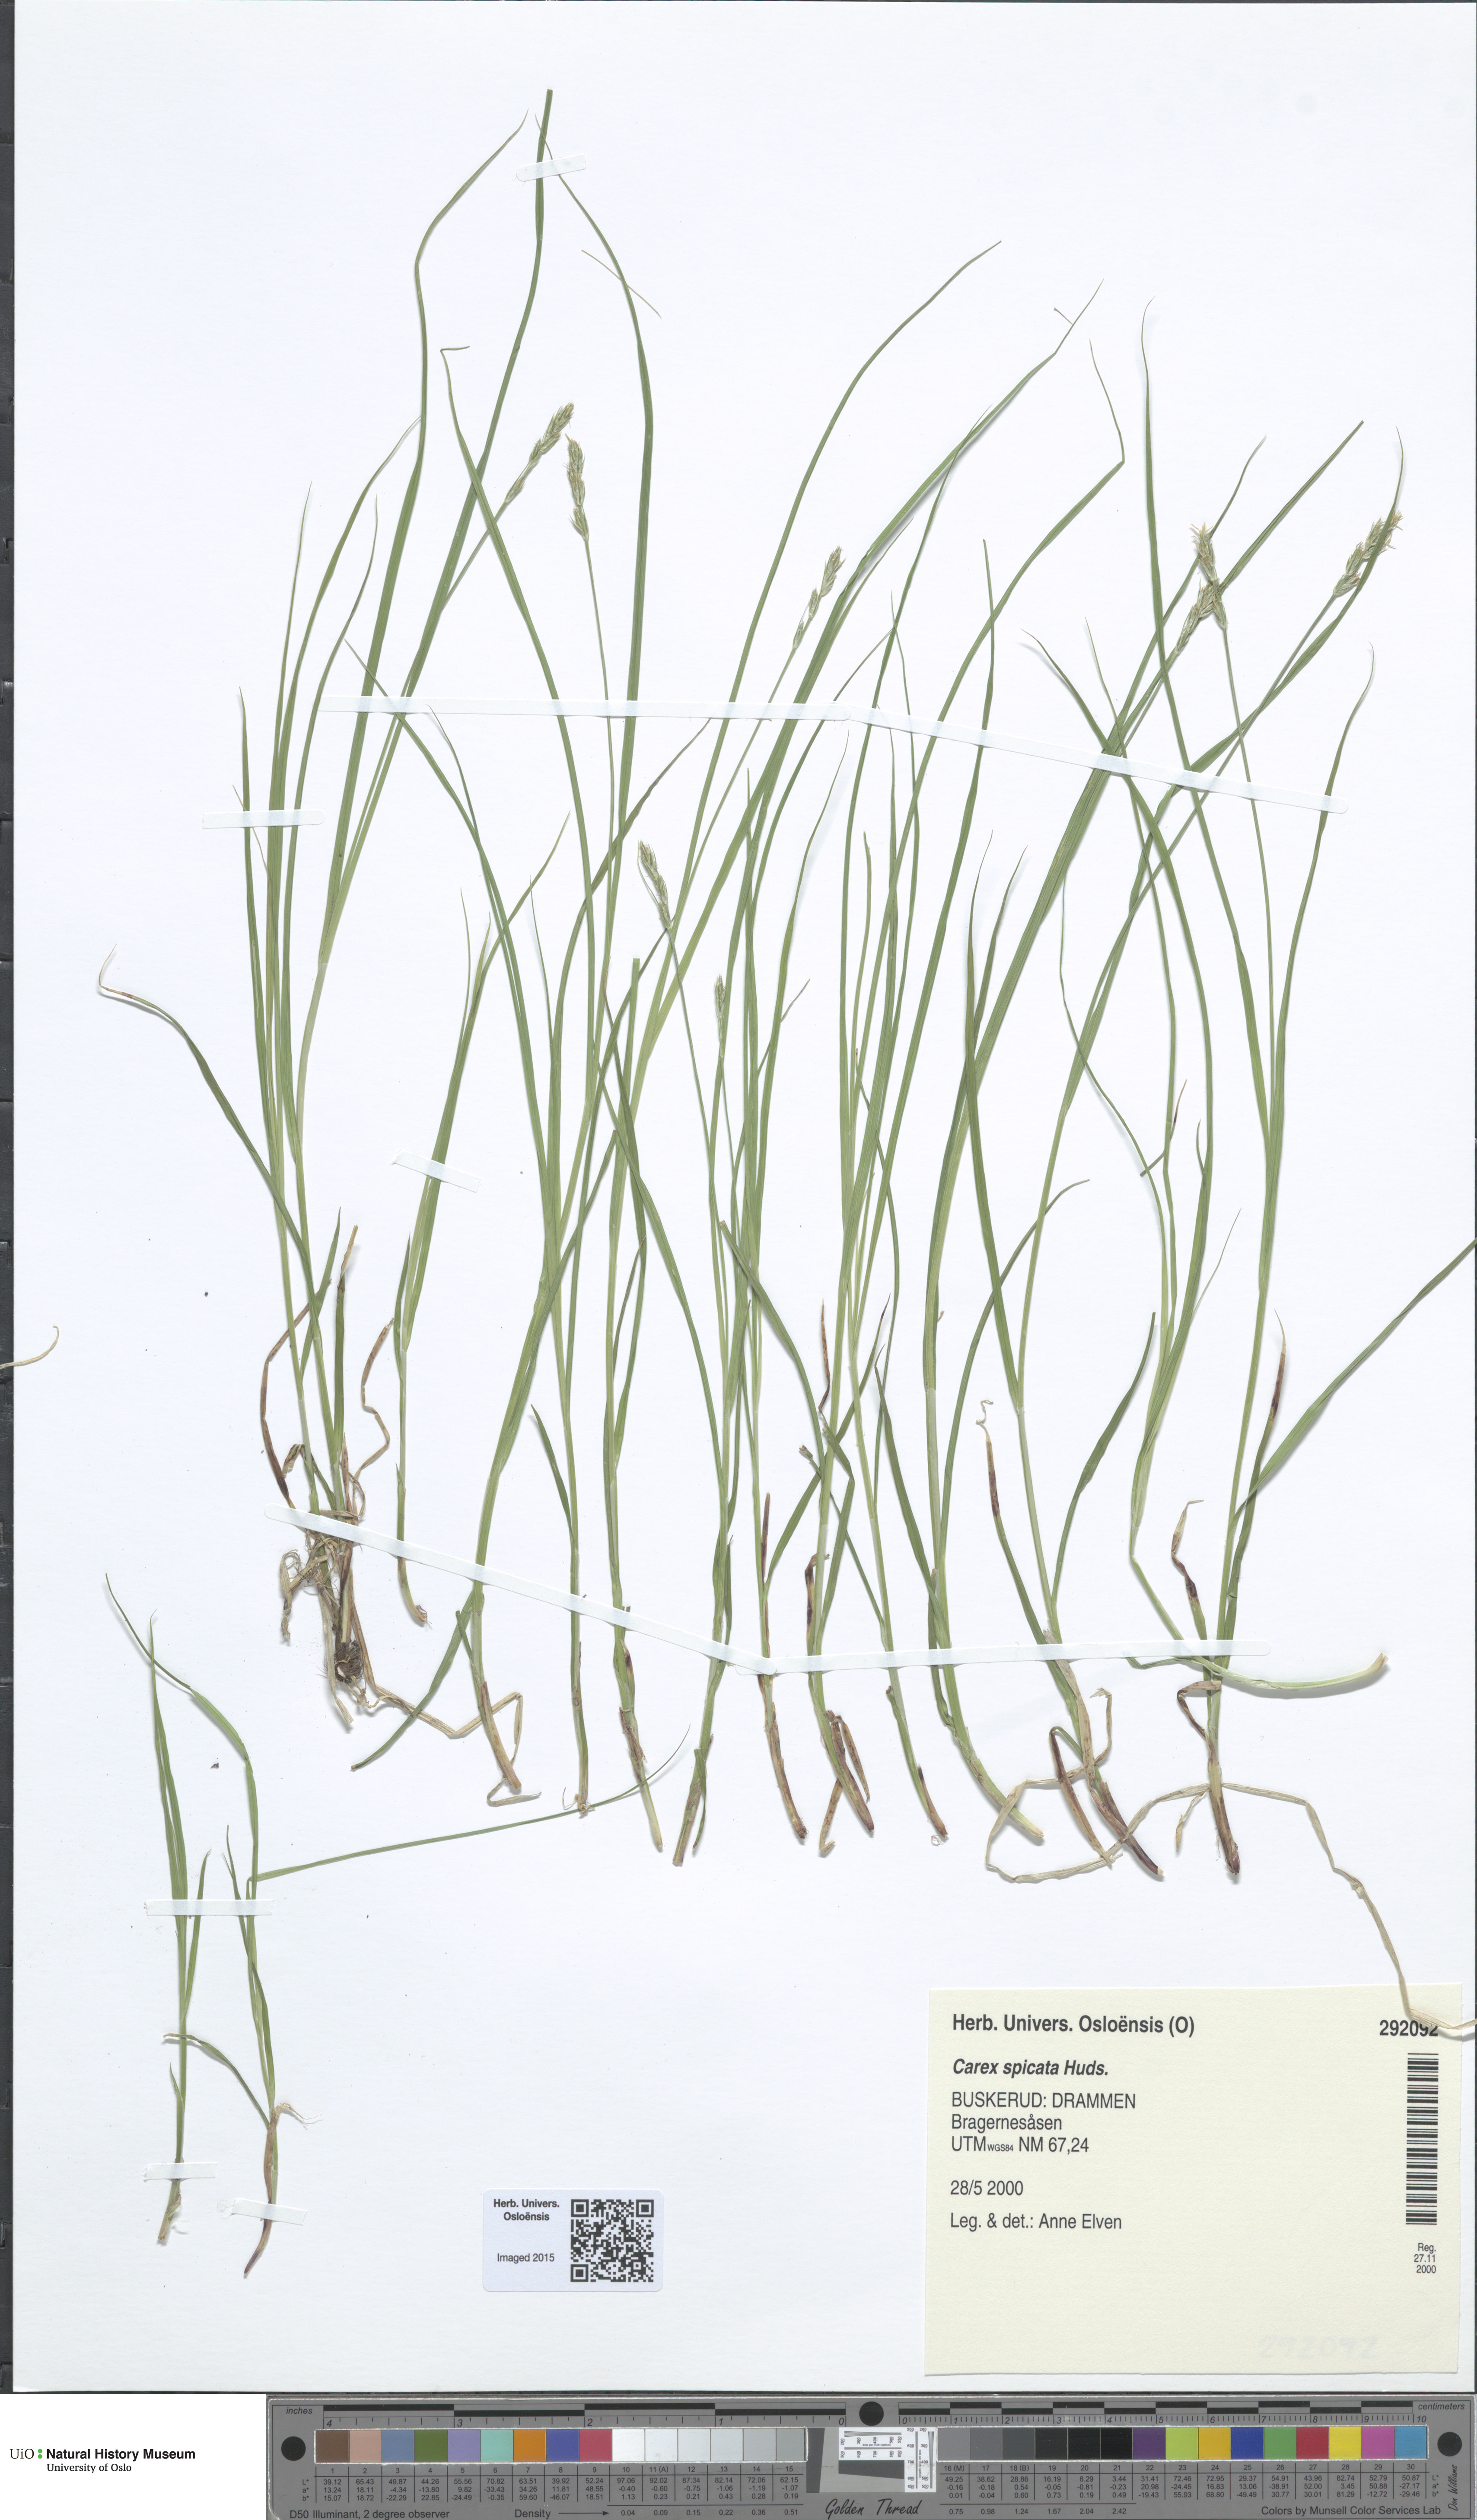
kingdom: Plantae
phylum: Tracheophyta
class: Liliopsida
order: Poales
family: Cyperaceae
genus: Carex
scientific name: Carex spicata
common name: Spiked sedge
